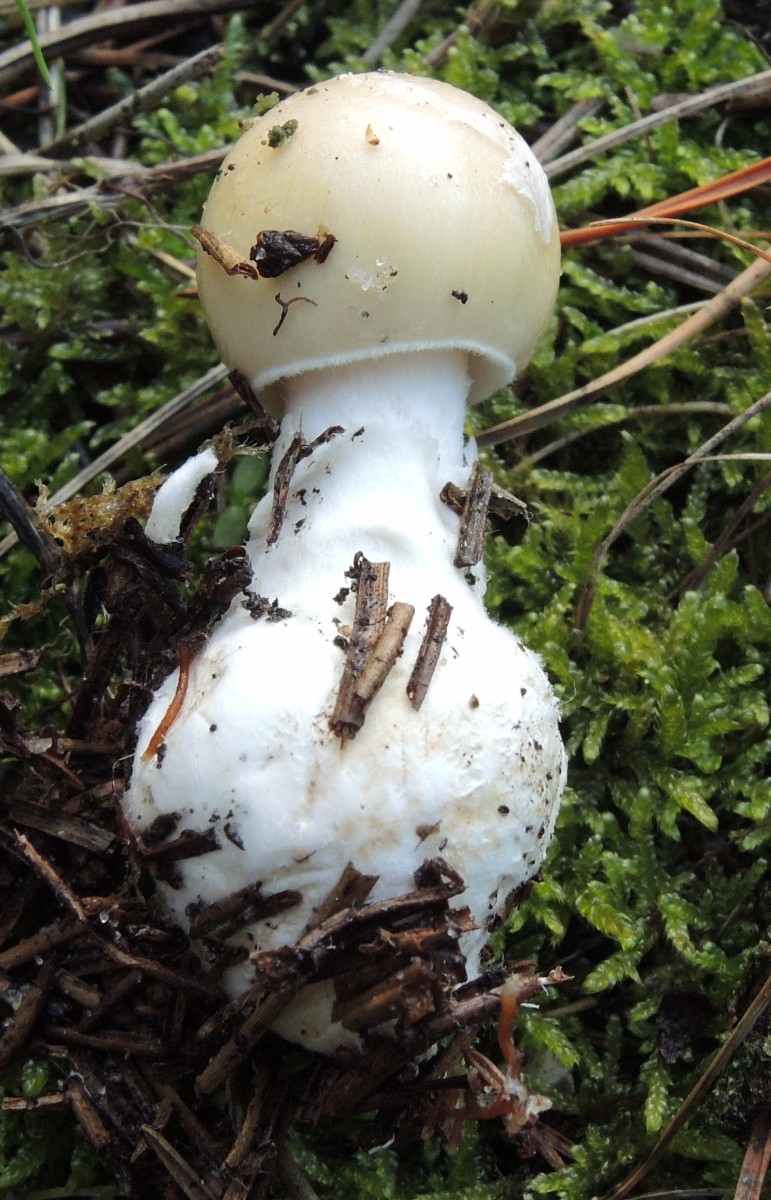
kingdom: Fungi
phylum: Basidiomycota
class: Agaricomycetes
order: Agaricales
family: Amanitaceae
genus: Amanita
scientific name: Amanita gemmata
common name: okkergul fluesvamp
